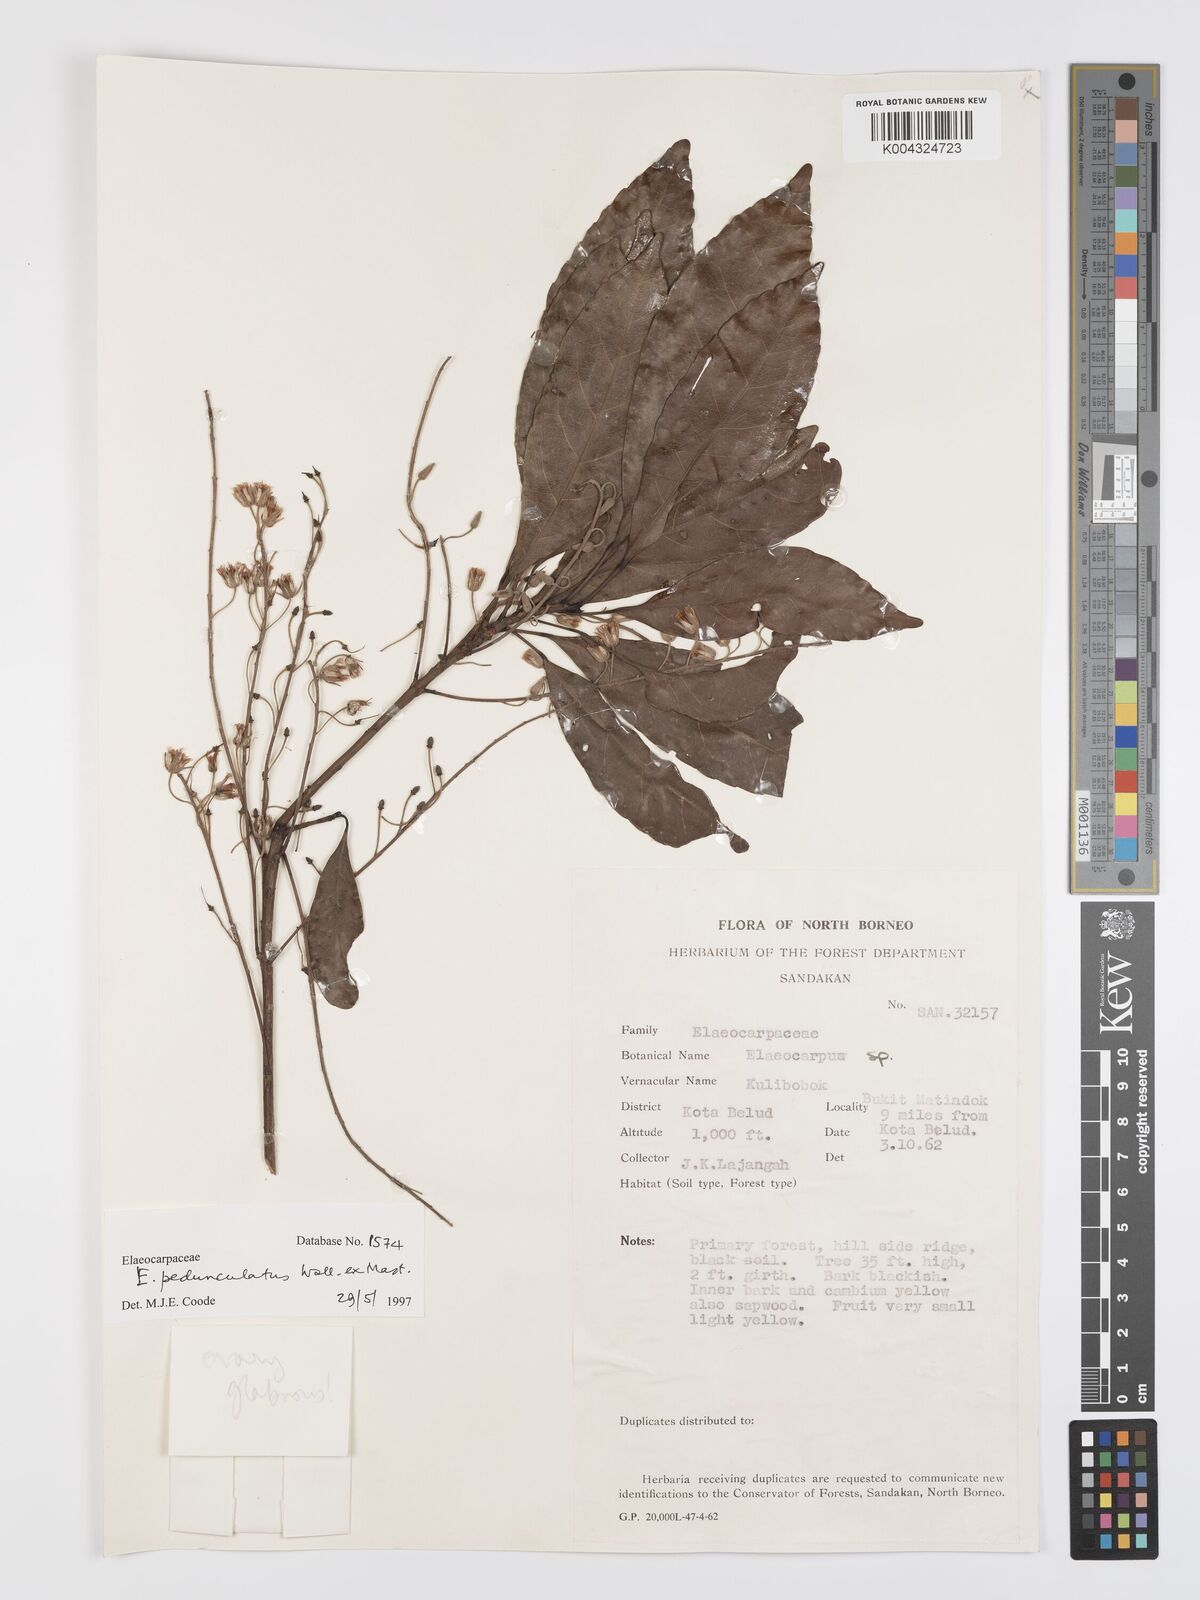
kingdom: Plantae
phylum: Tracheophyta
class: Magnoliopsida
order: Oxalidales
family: Elaeocarpaceae
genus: Elaeocarpus
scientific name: Elaeocarpus pedunculatus
